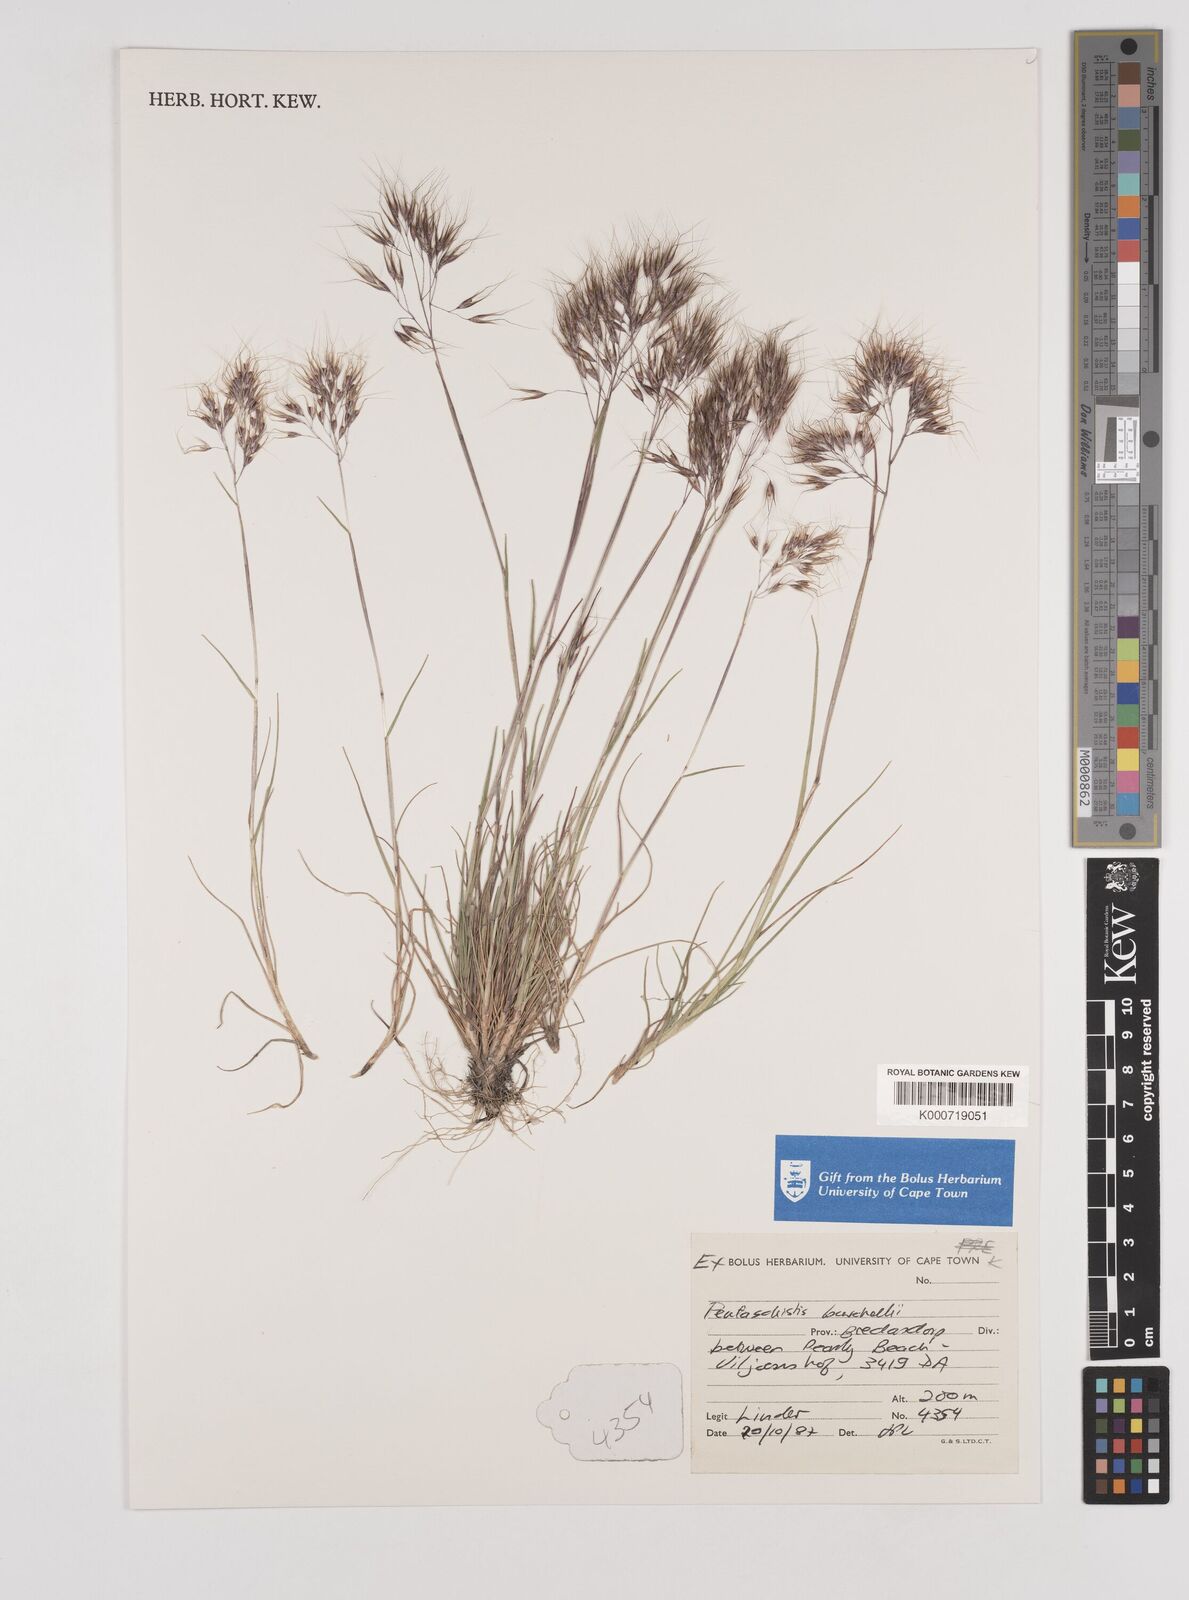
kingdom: Plantae
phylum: Tracheophyta
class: Liliopsida
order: Poales
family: Poaceae
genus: Pentameris
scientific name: Pentameris cirrhulosa
